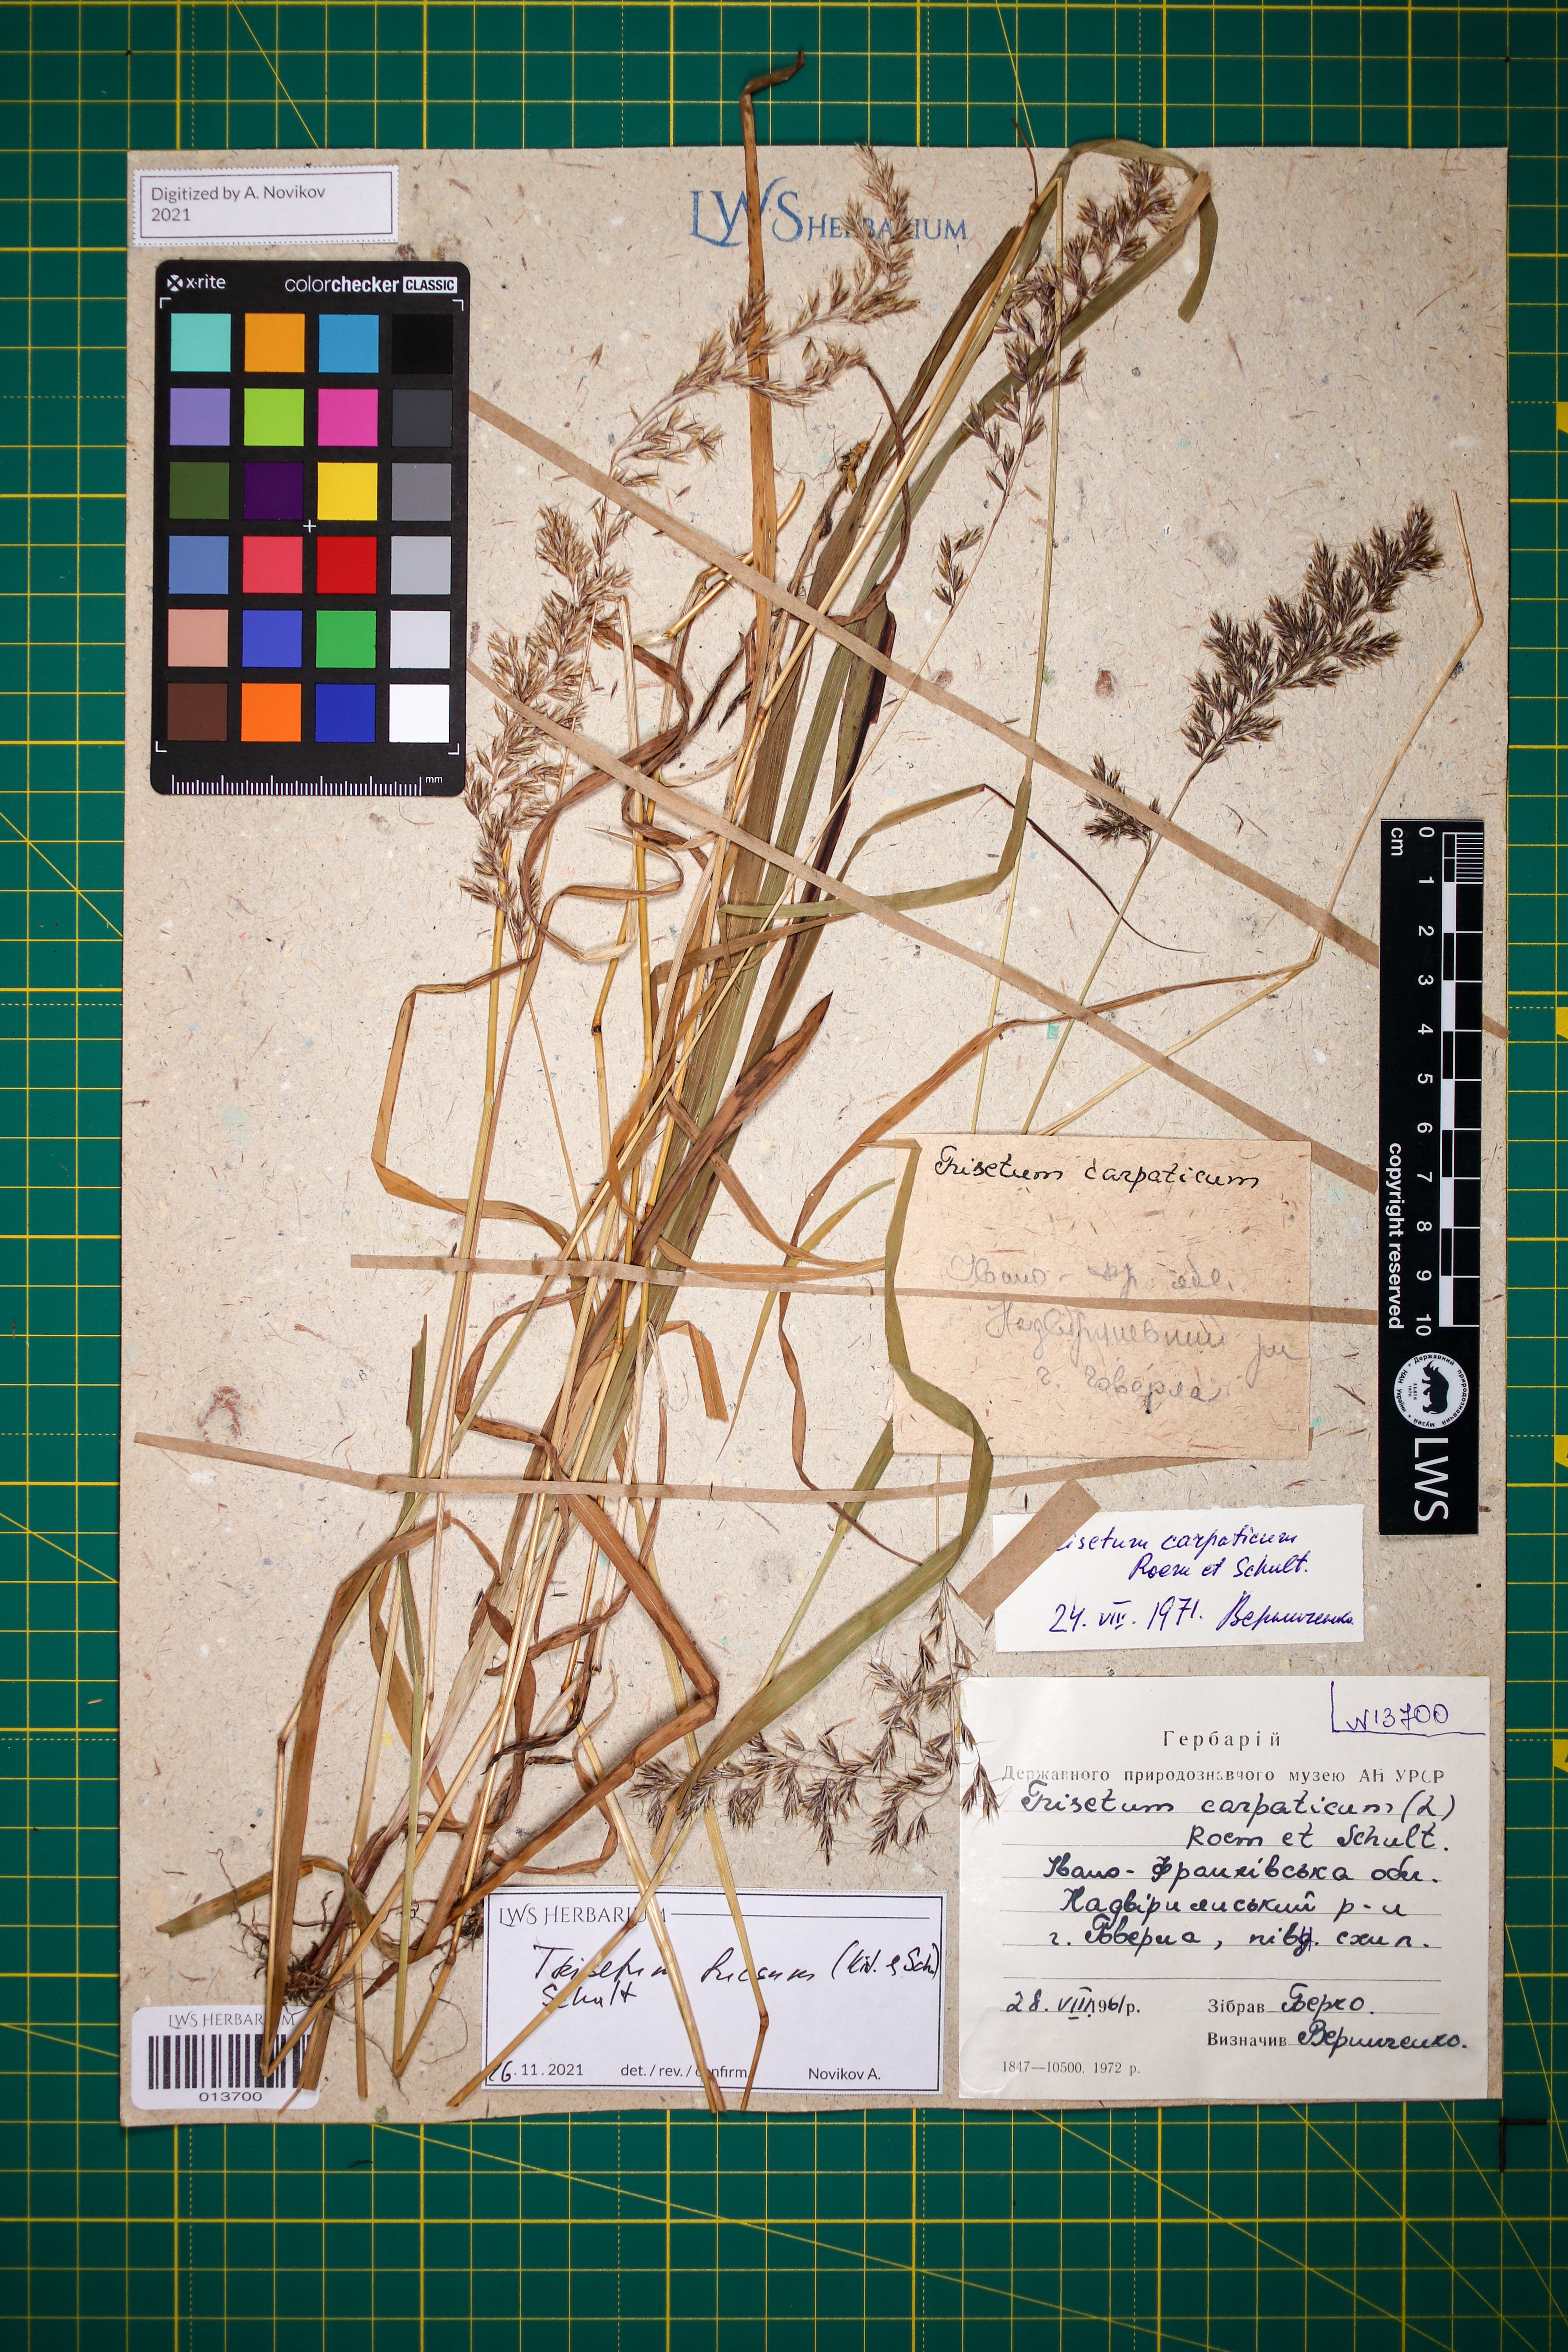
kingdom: Plantae
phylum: Tracheophyta
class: Liliopsida
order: Poales
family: Poaceae
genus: Trisetum
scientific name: Trisetum fuscum
